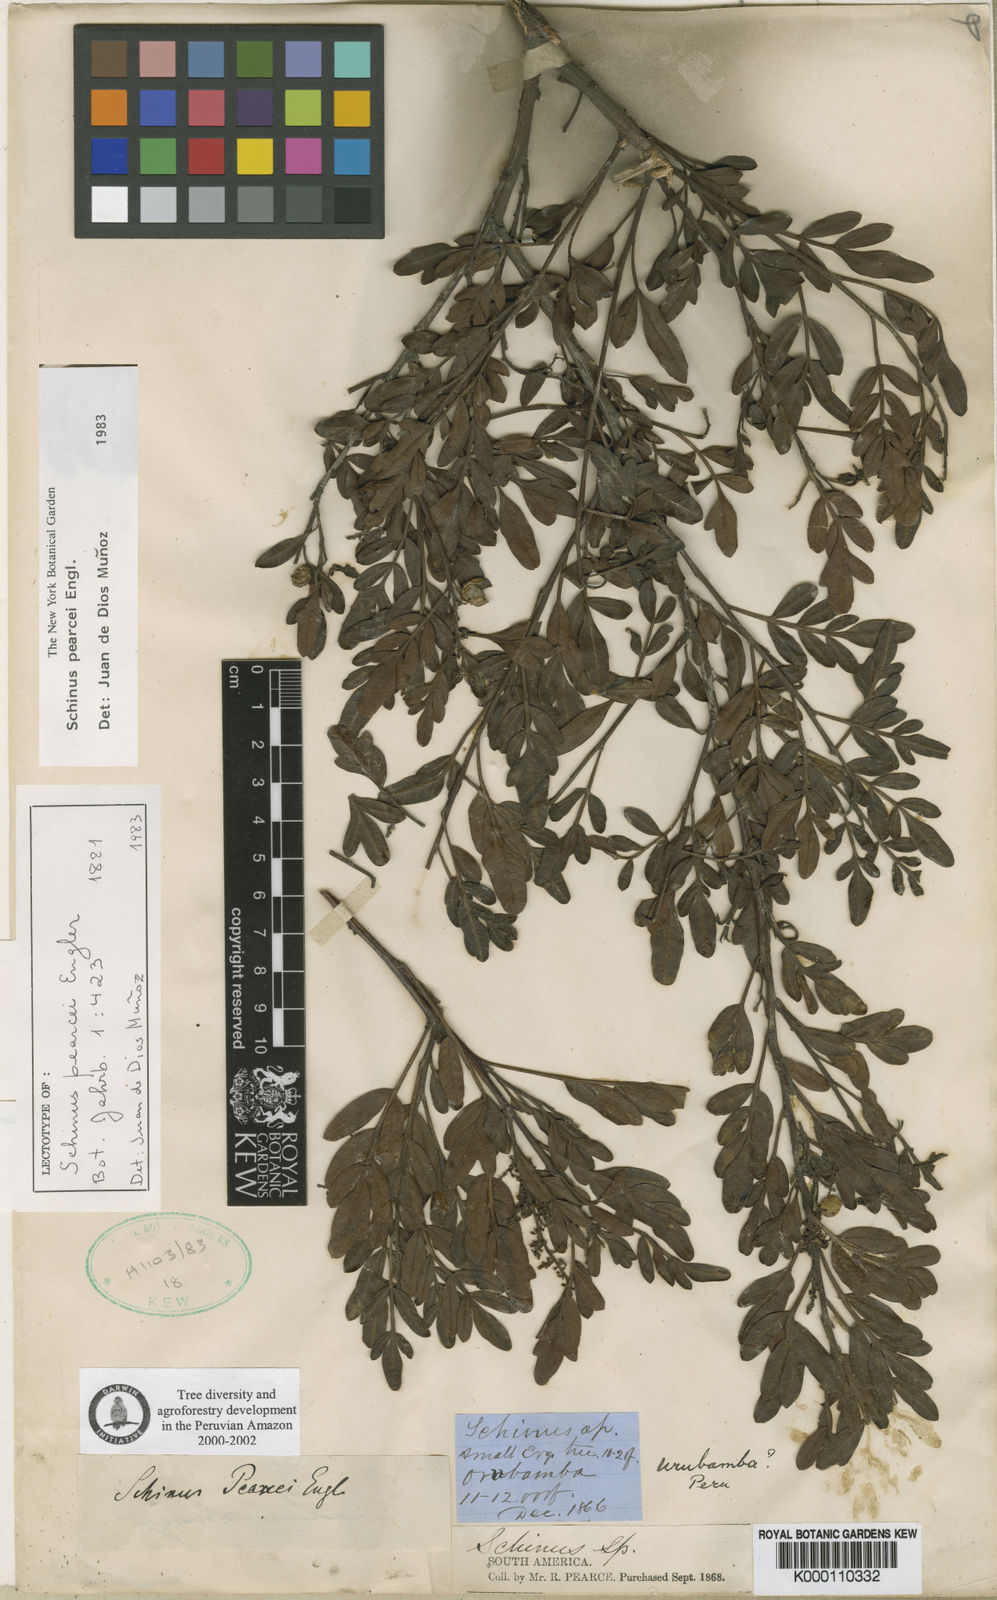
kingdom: Plantae
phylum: Tracheophyta
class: Magnoliopsida
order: Sapindales
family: Anacardiaceae
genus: Schinus
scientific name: Schinus pearcei
